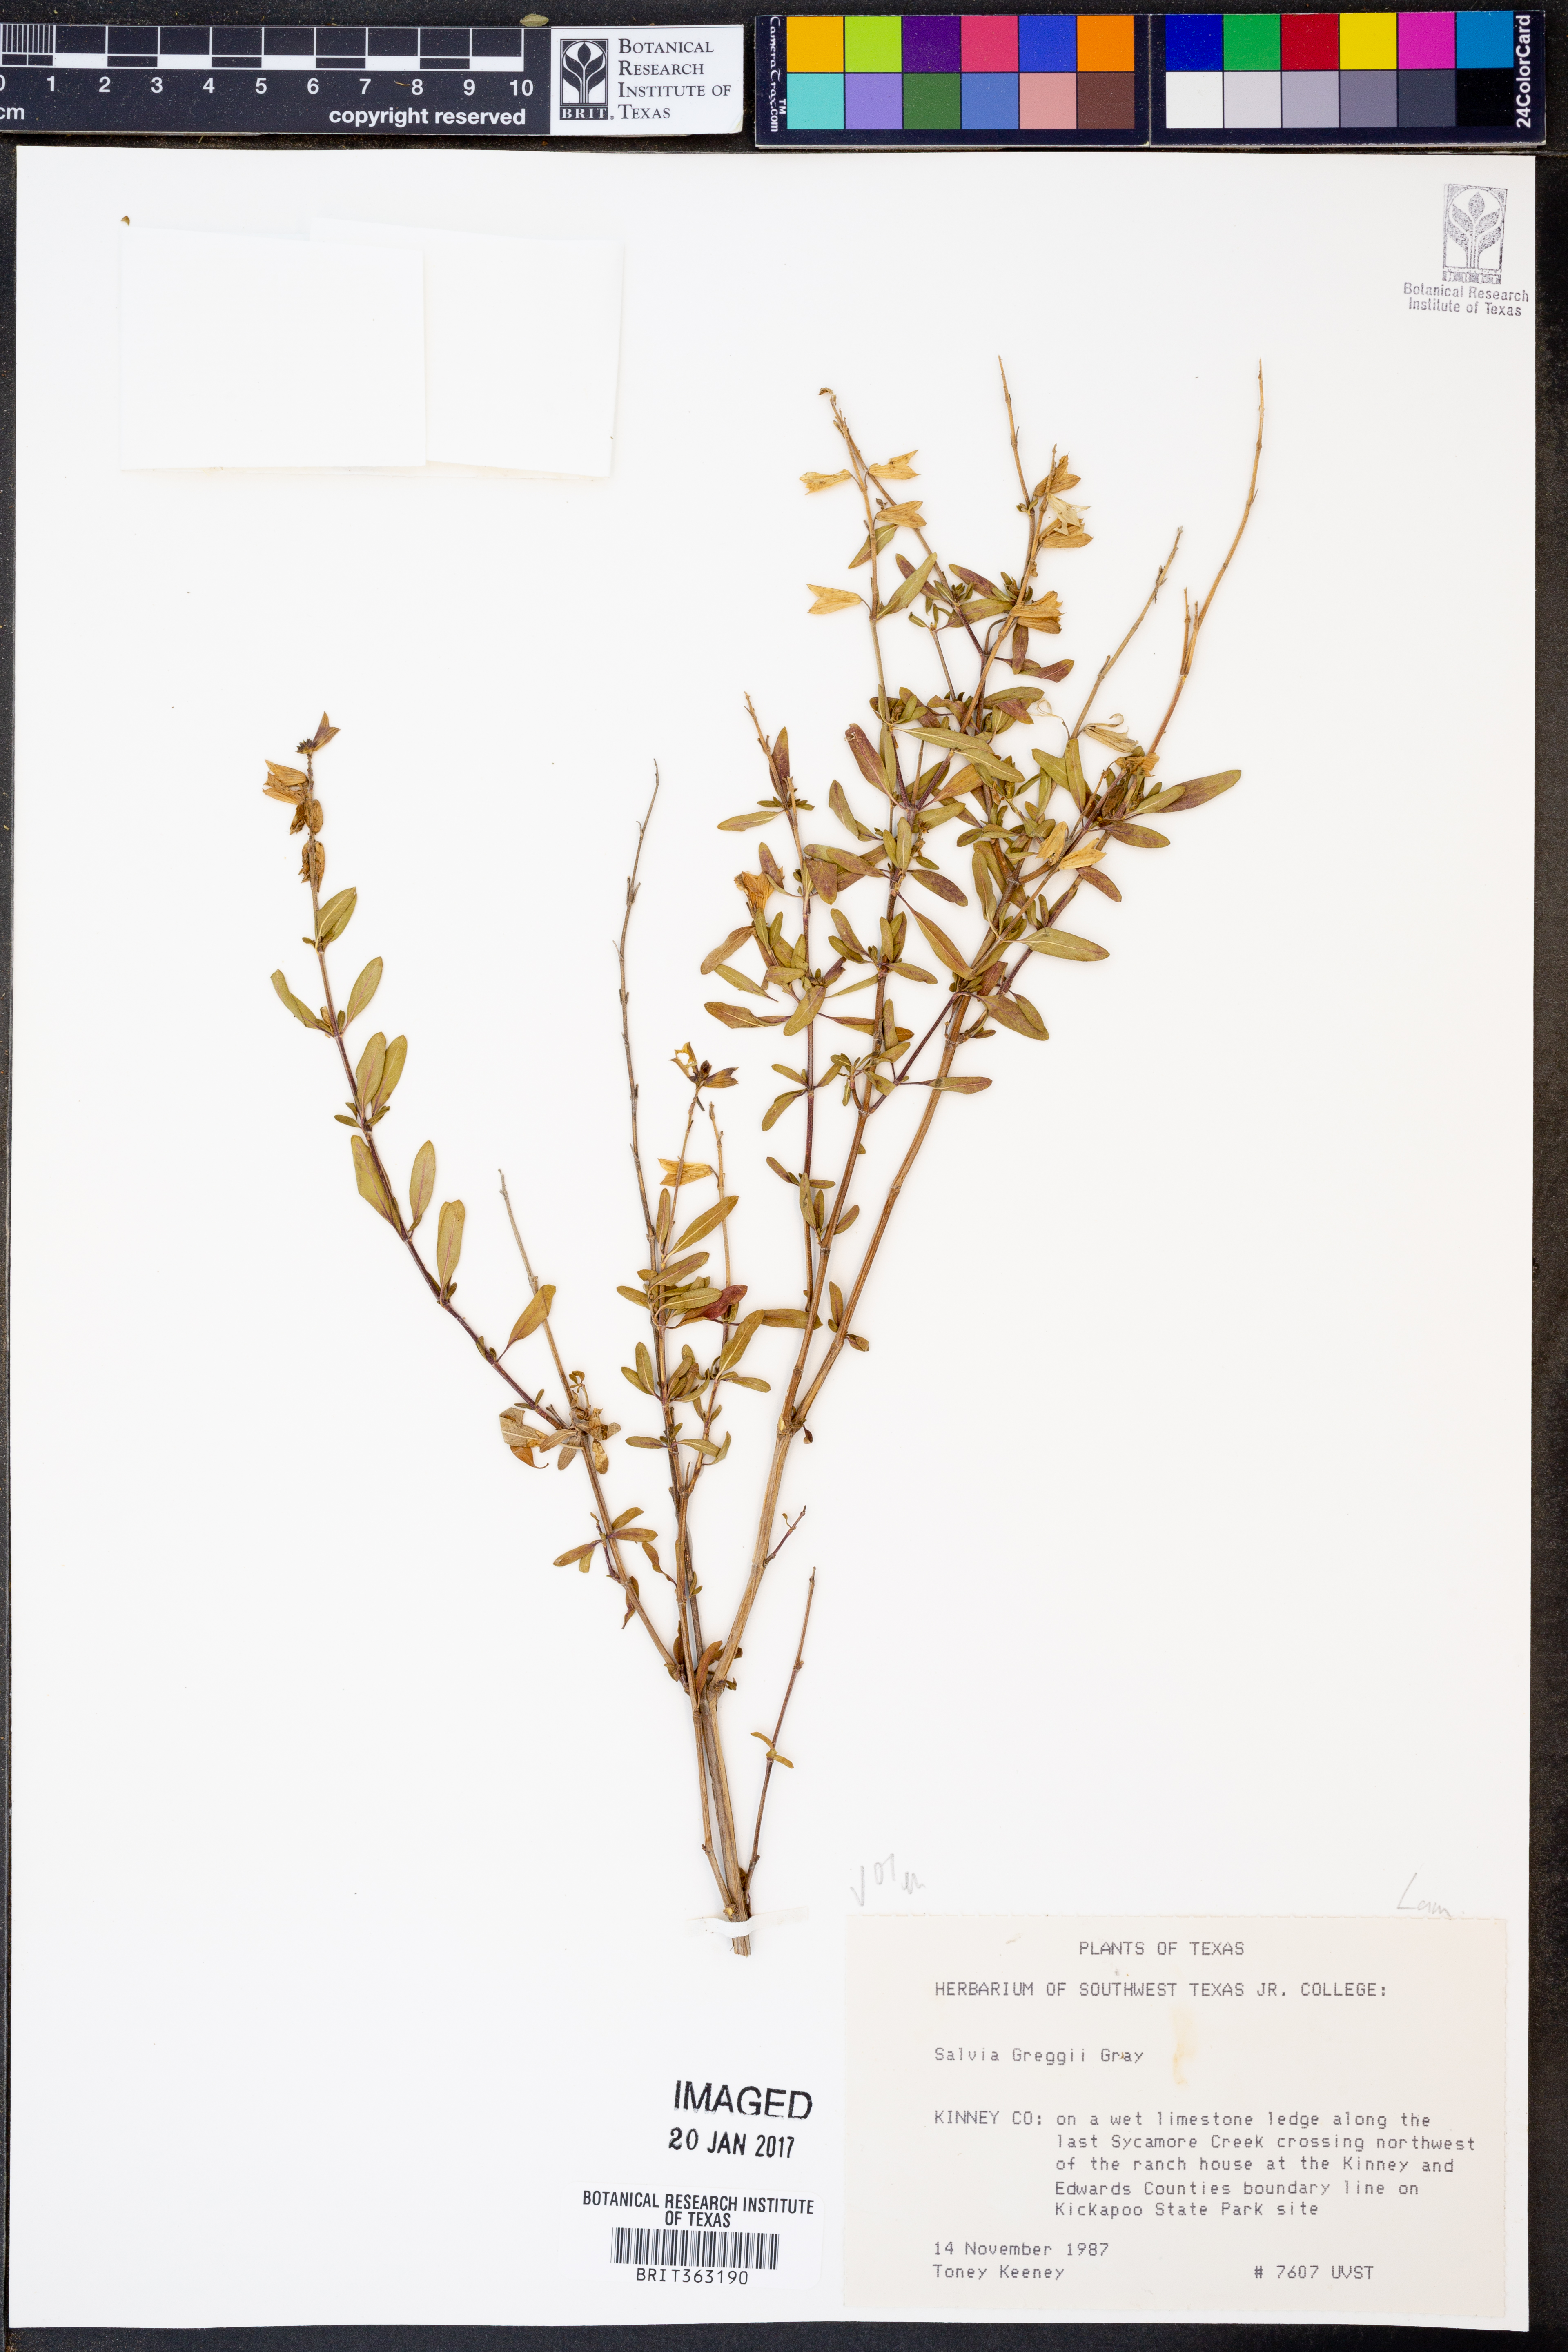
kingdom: Plantae
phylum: Tracheophyta
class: Magnoliopsida
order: Lamiales
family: Lamiaceae
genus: Salvia
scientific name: Salvia greggii
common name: Autumn sage
